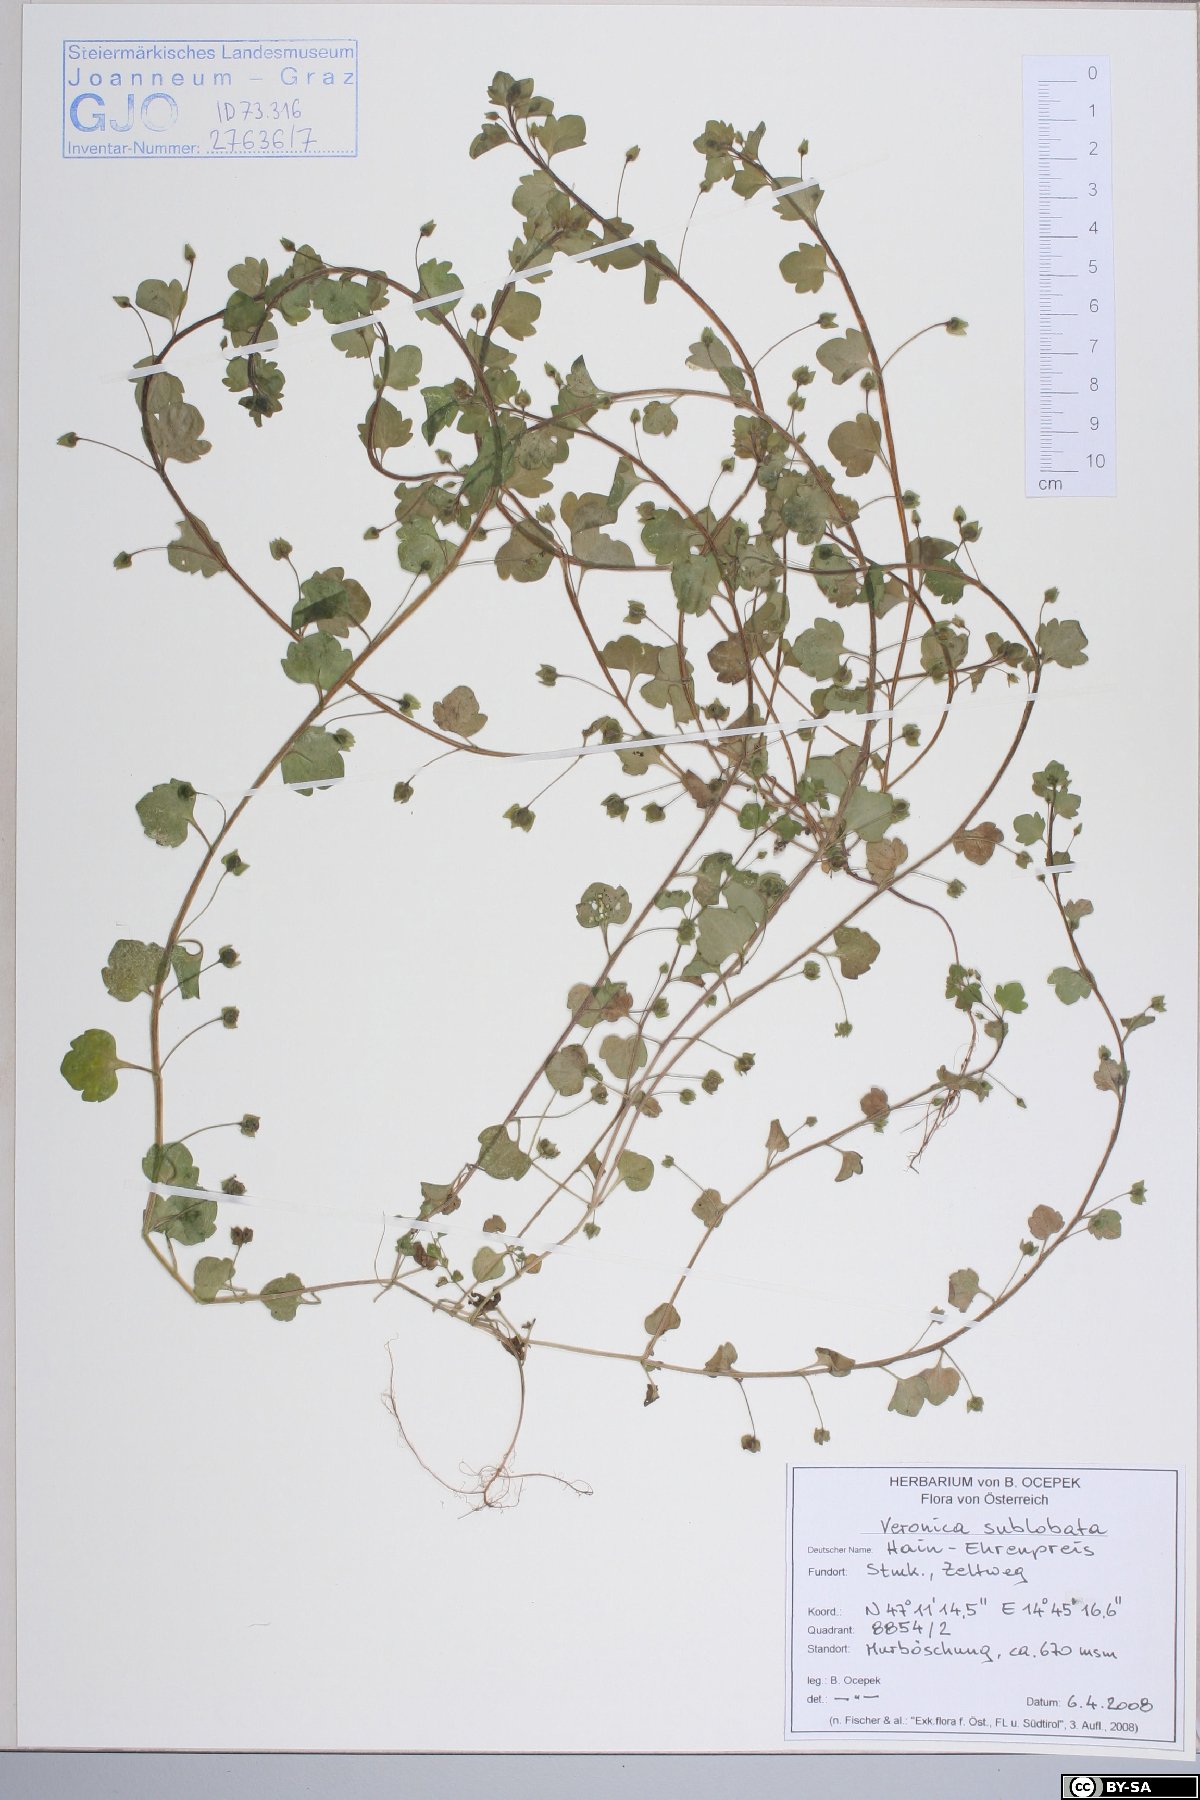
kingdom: Plantae
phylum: Tracheophyta
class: Magnoliopsida
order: Lamiales
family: Plantaginaceae
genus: Veronica
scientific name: Veronica sublobata
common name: False ivy-leaved speedwell
